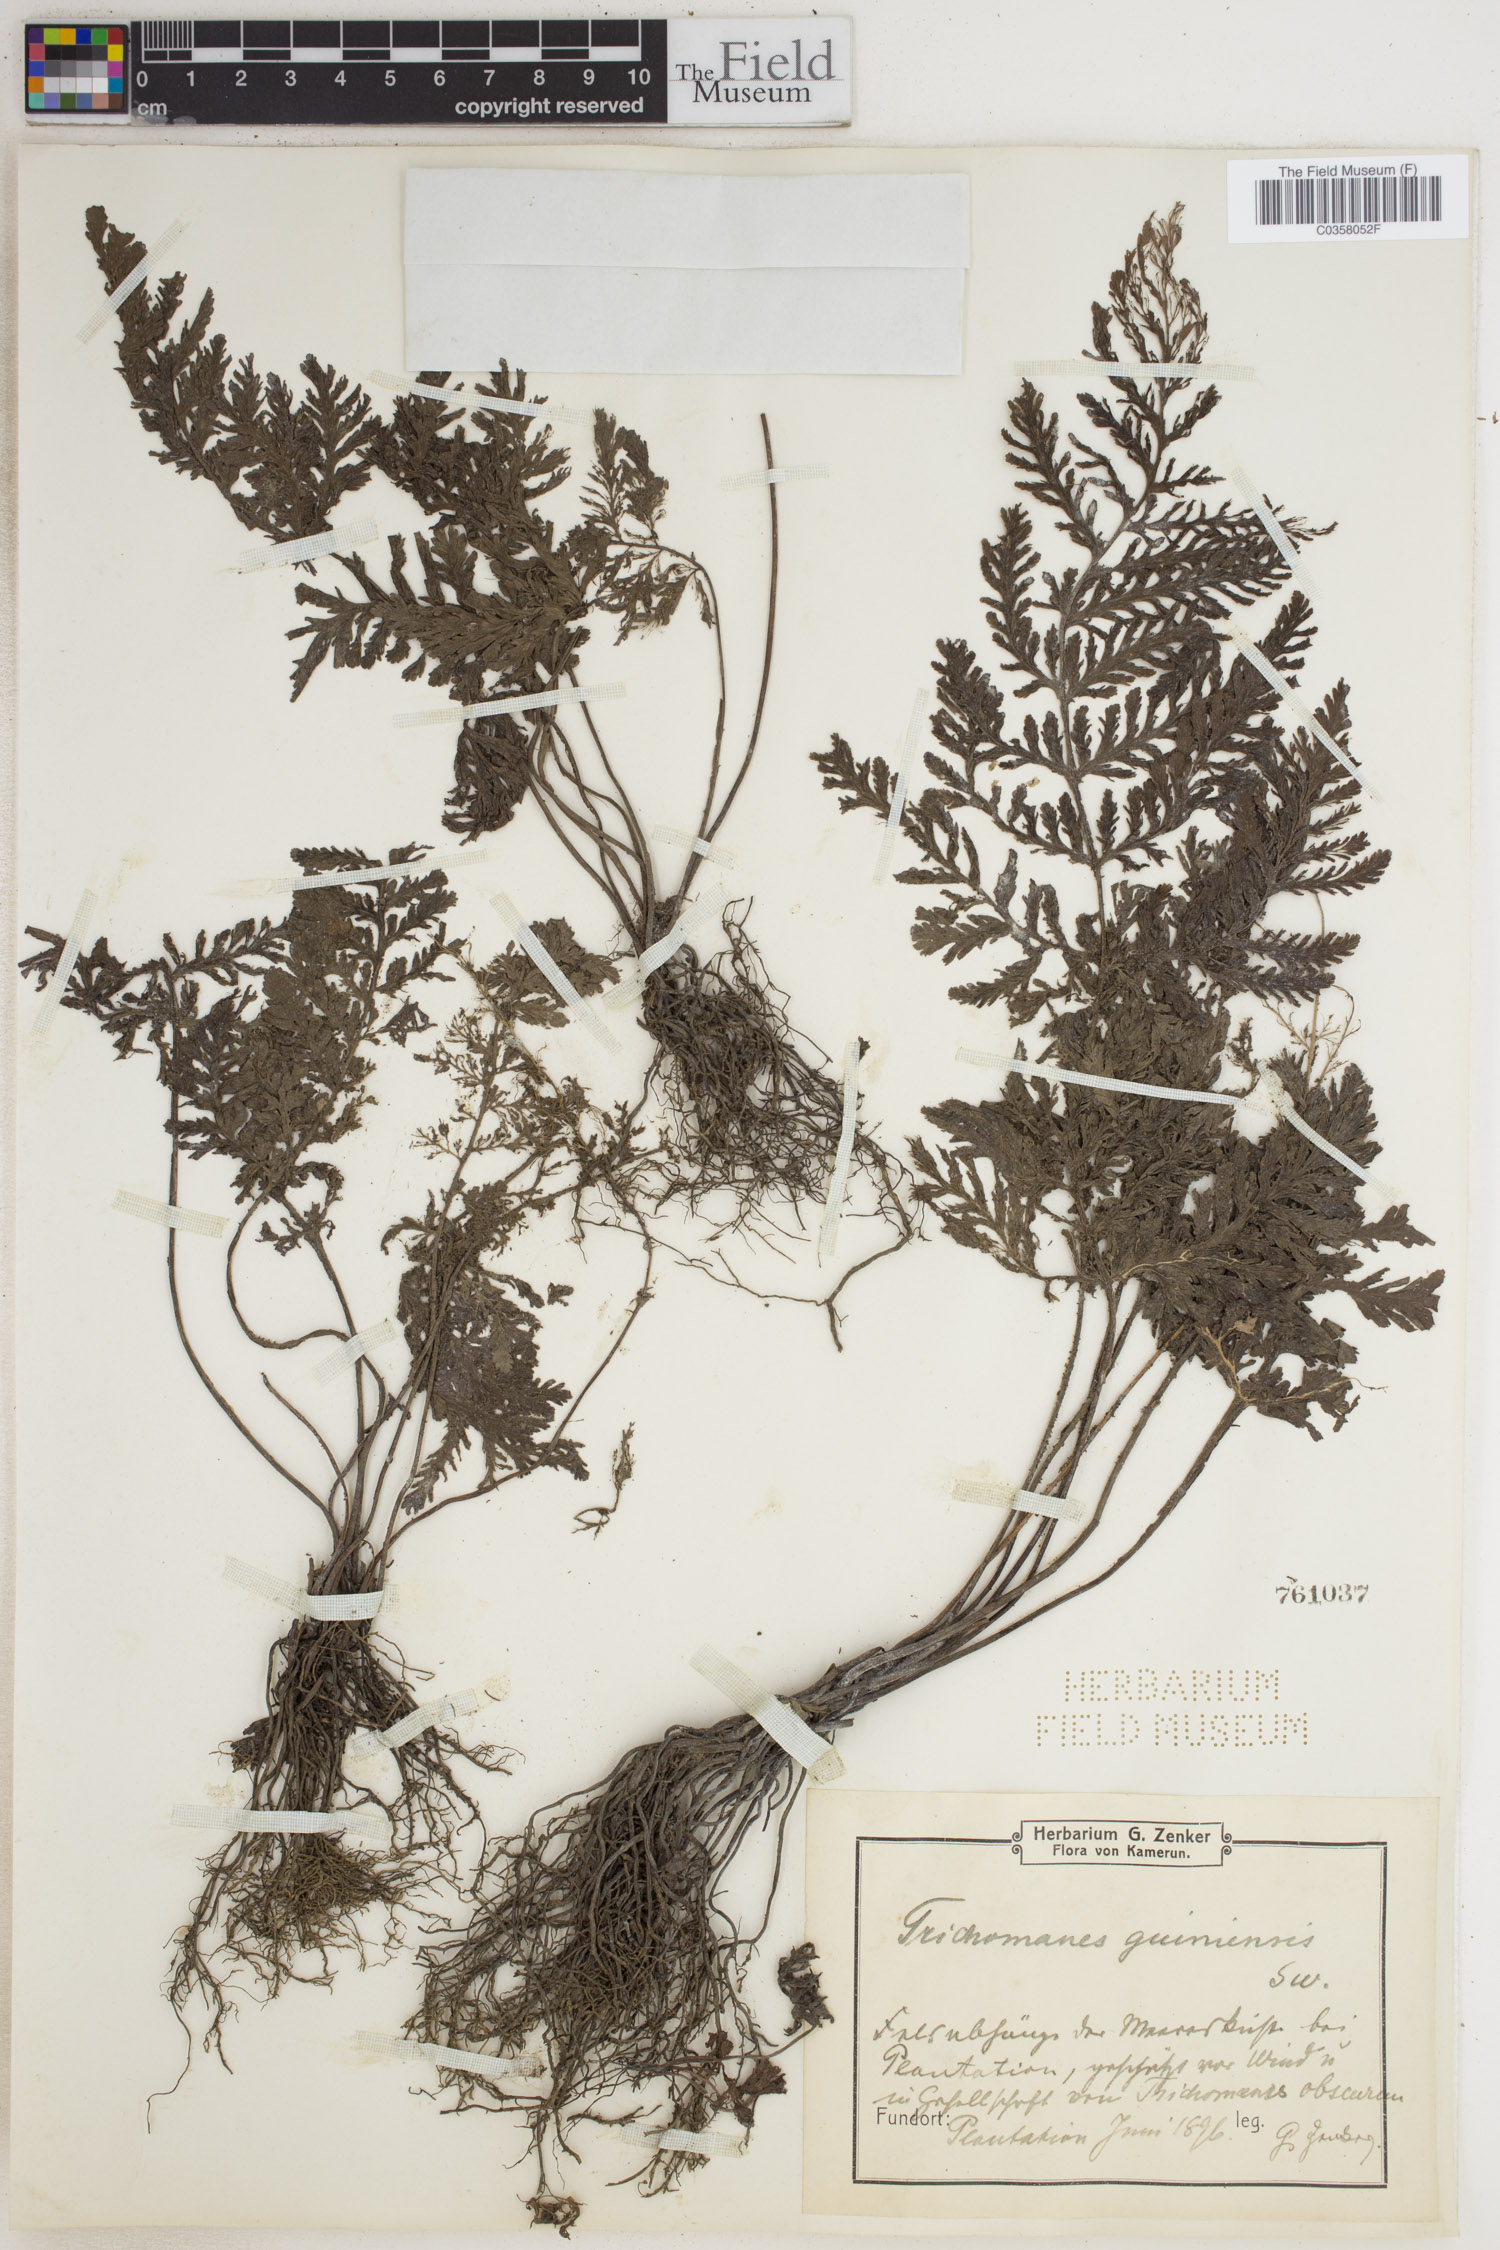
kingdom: Plantae
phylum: Tracheophyta
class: Polypodiopsida
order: Hymenophyllales
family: Hymenophyllaceae
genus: Abrodictyum
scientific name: Abrodictyum guineense
